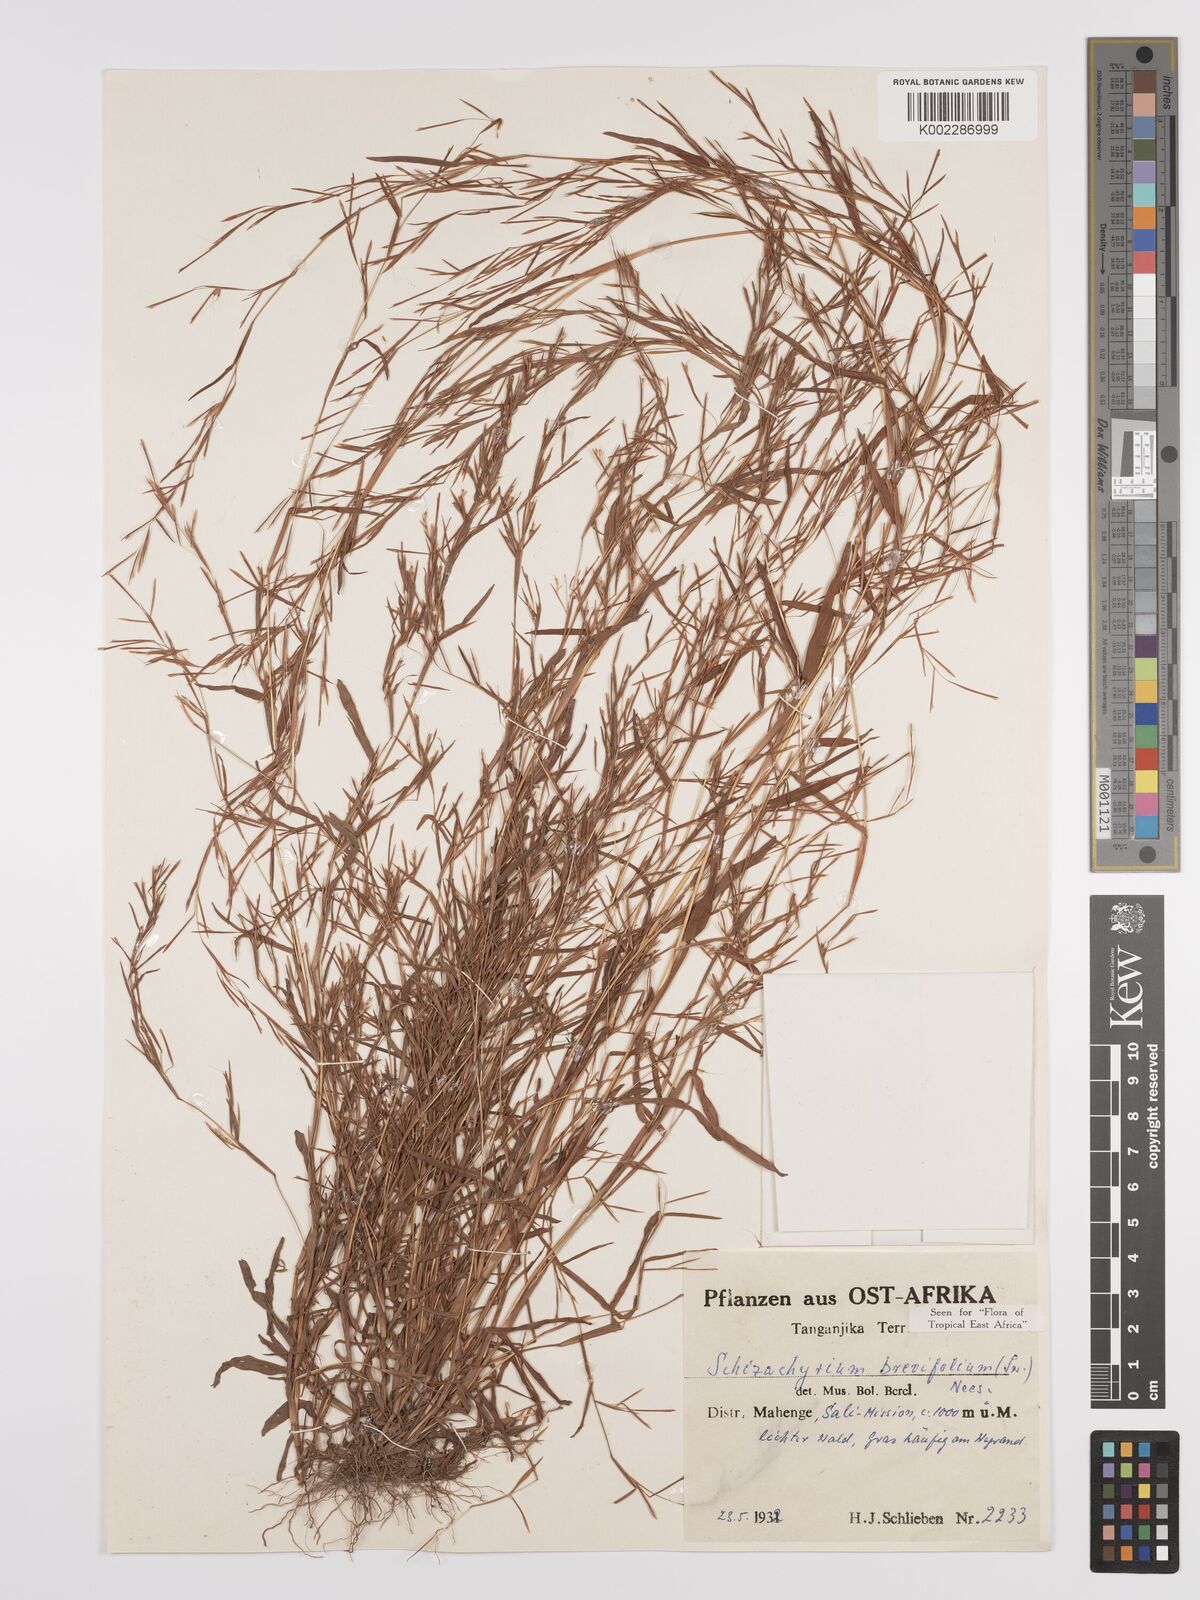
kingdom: Plantae
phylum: Tracheophyta
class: Liliopsida
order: Poales
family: Poaceae
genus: Schizachyrium
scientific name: Schizachyrium brevifolium
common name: Serillo dulce
